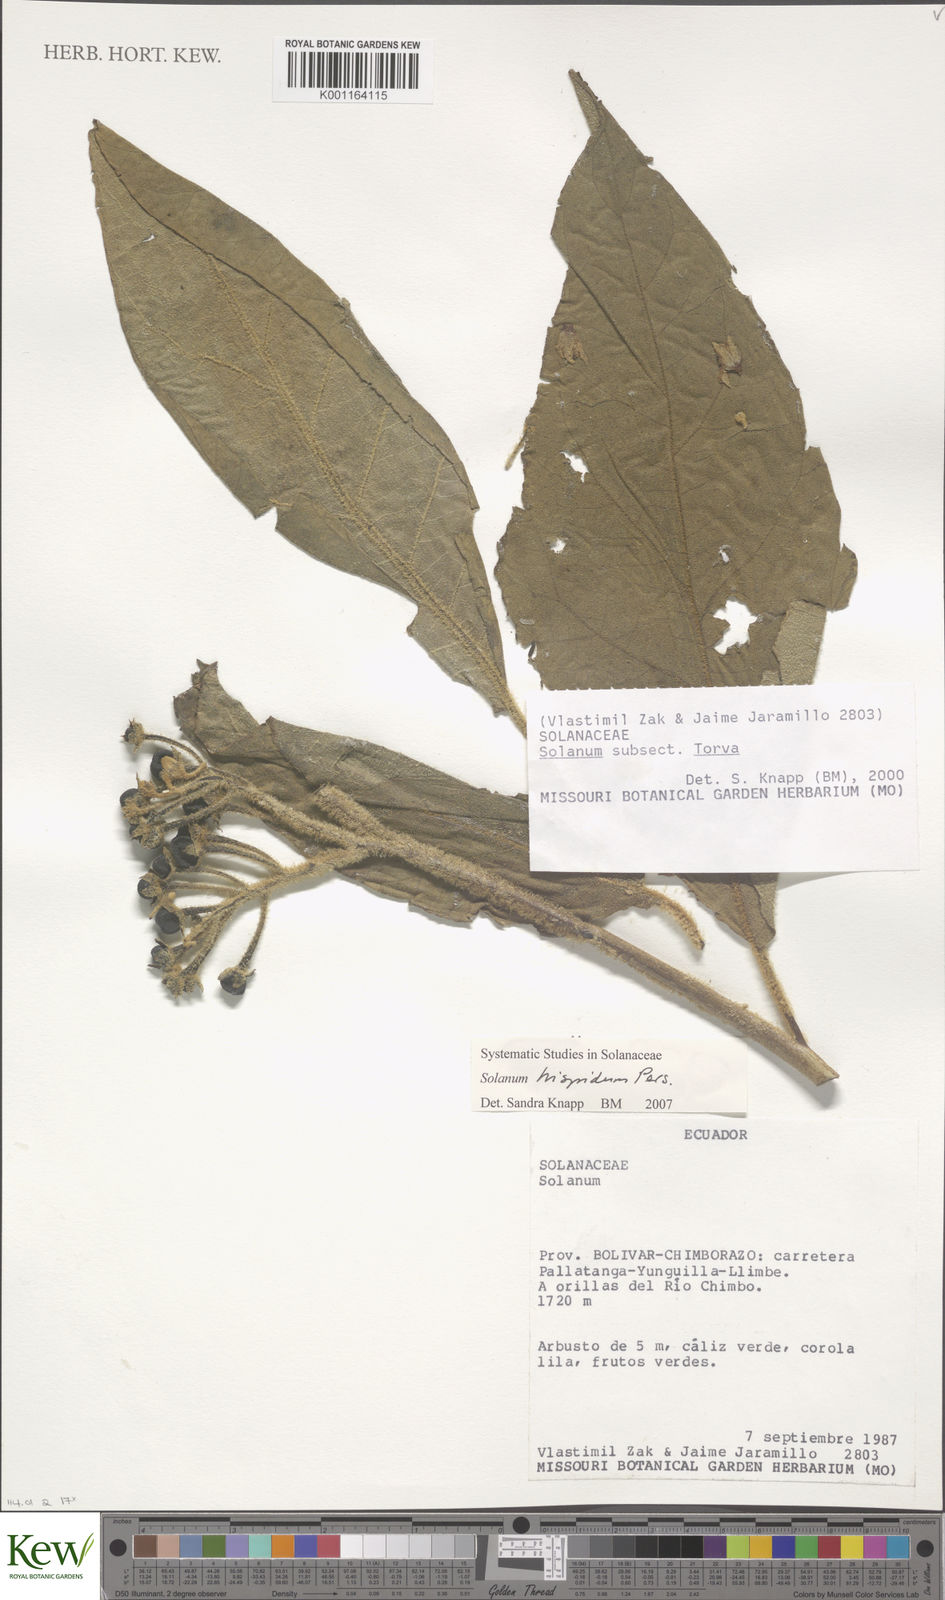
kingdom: Plantae
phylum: Tracheophyta
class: Magnoliopsida
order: Solanales
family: Solanaceae
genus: Solanum
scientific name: Solanum asperolanatum
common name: Devil's-fig
